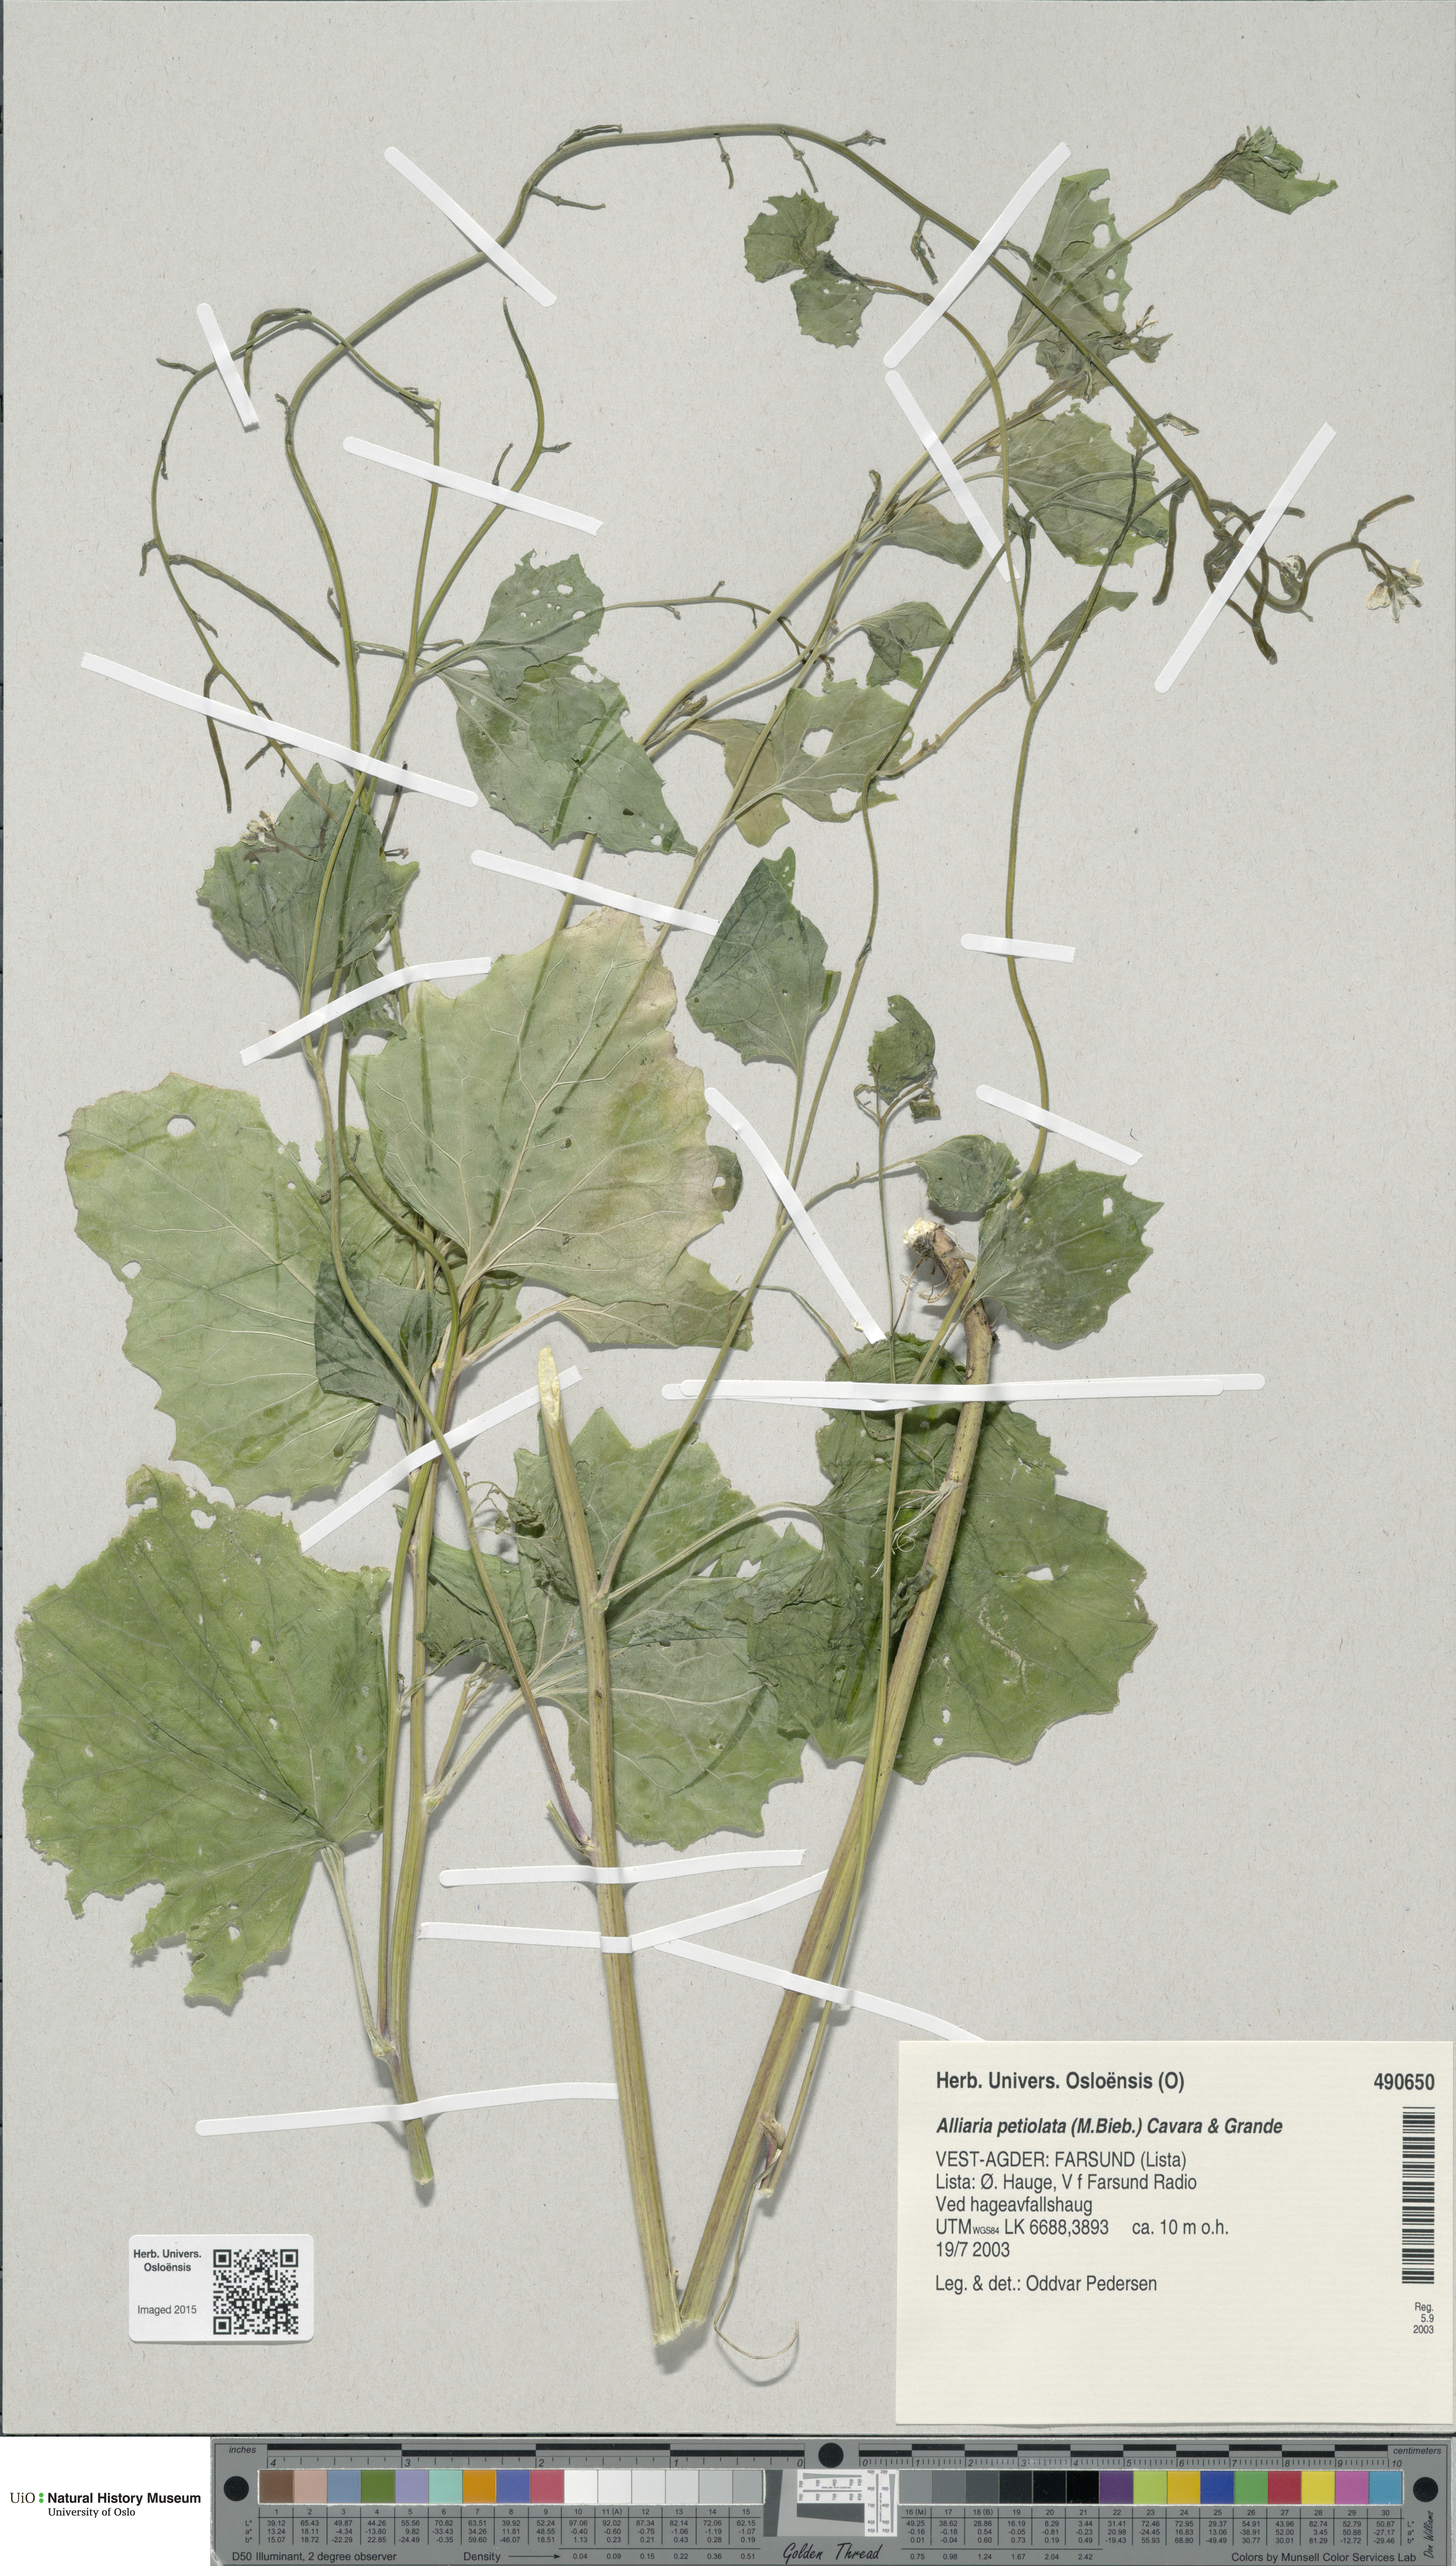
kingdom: Plantae
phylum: Tracheophyta
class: Magnoliopsida
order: Brassicales
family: Brassicaceae
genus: Alliaria
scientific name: Alliaria petiolata
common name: Garlic mustard
